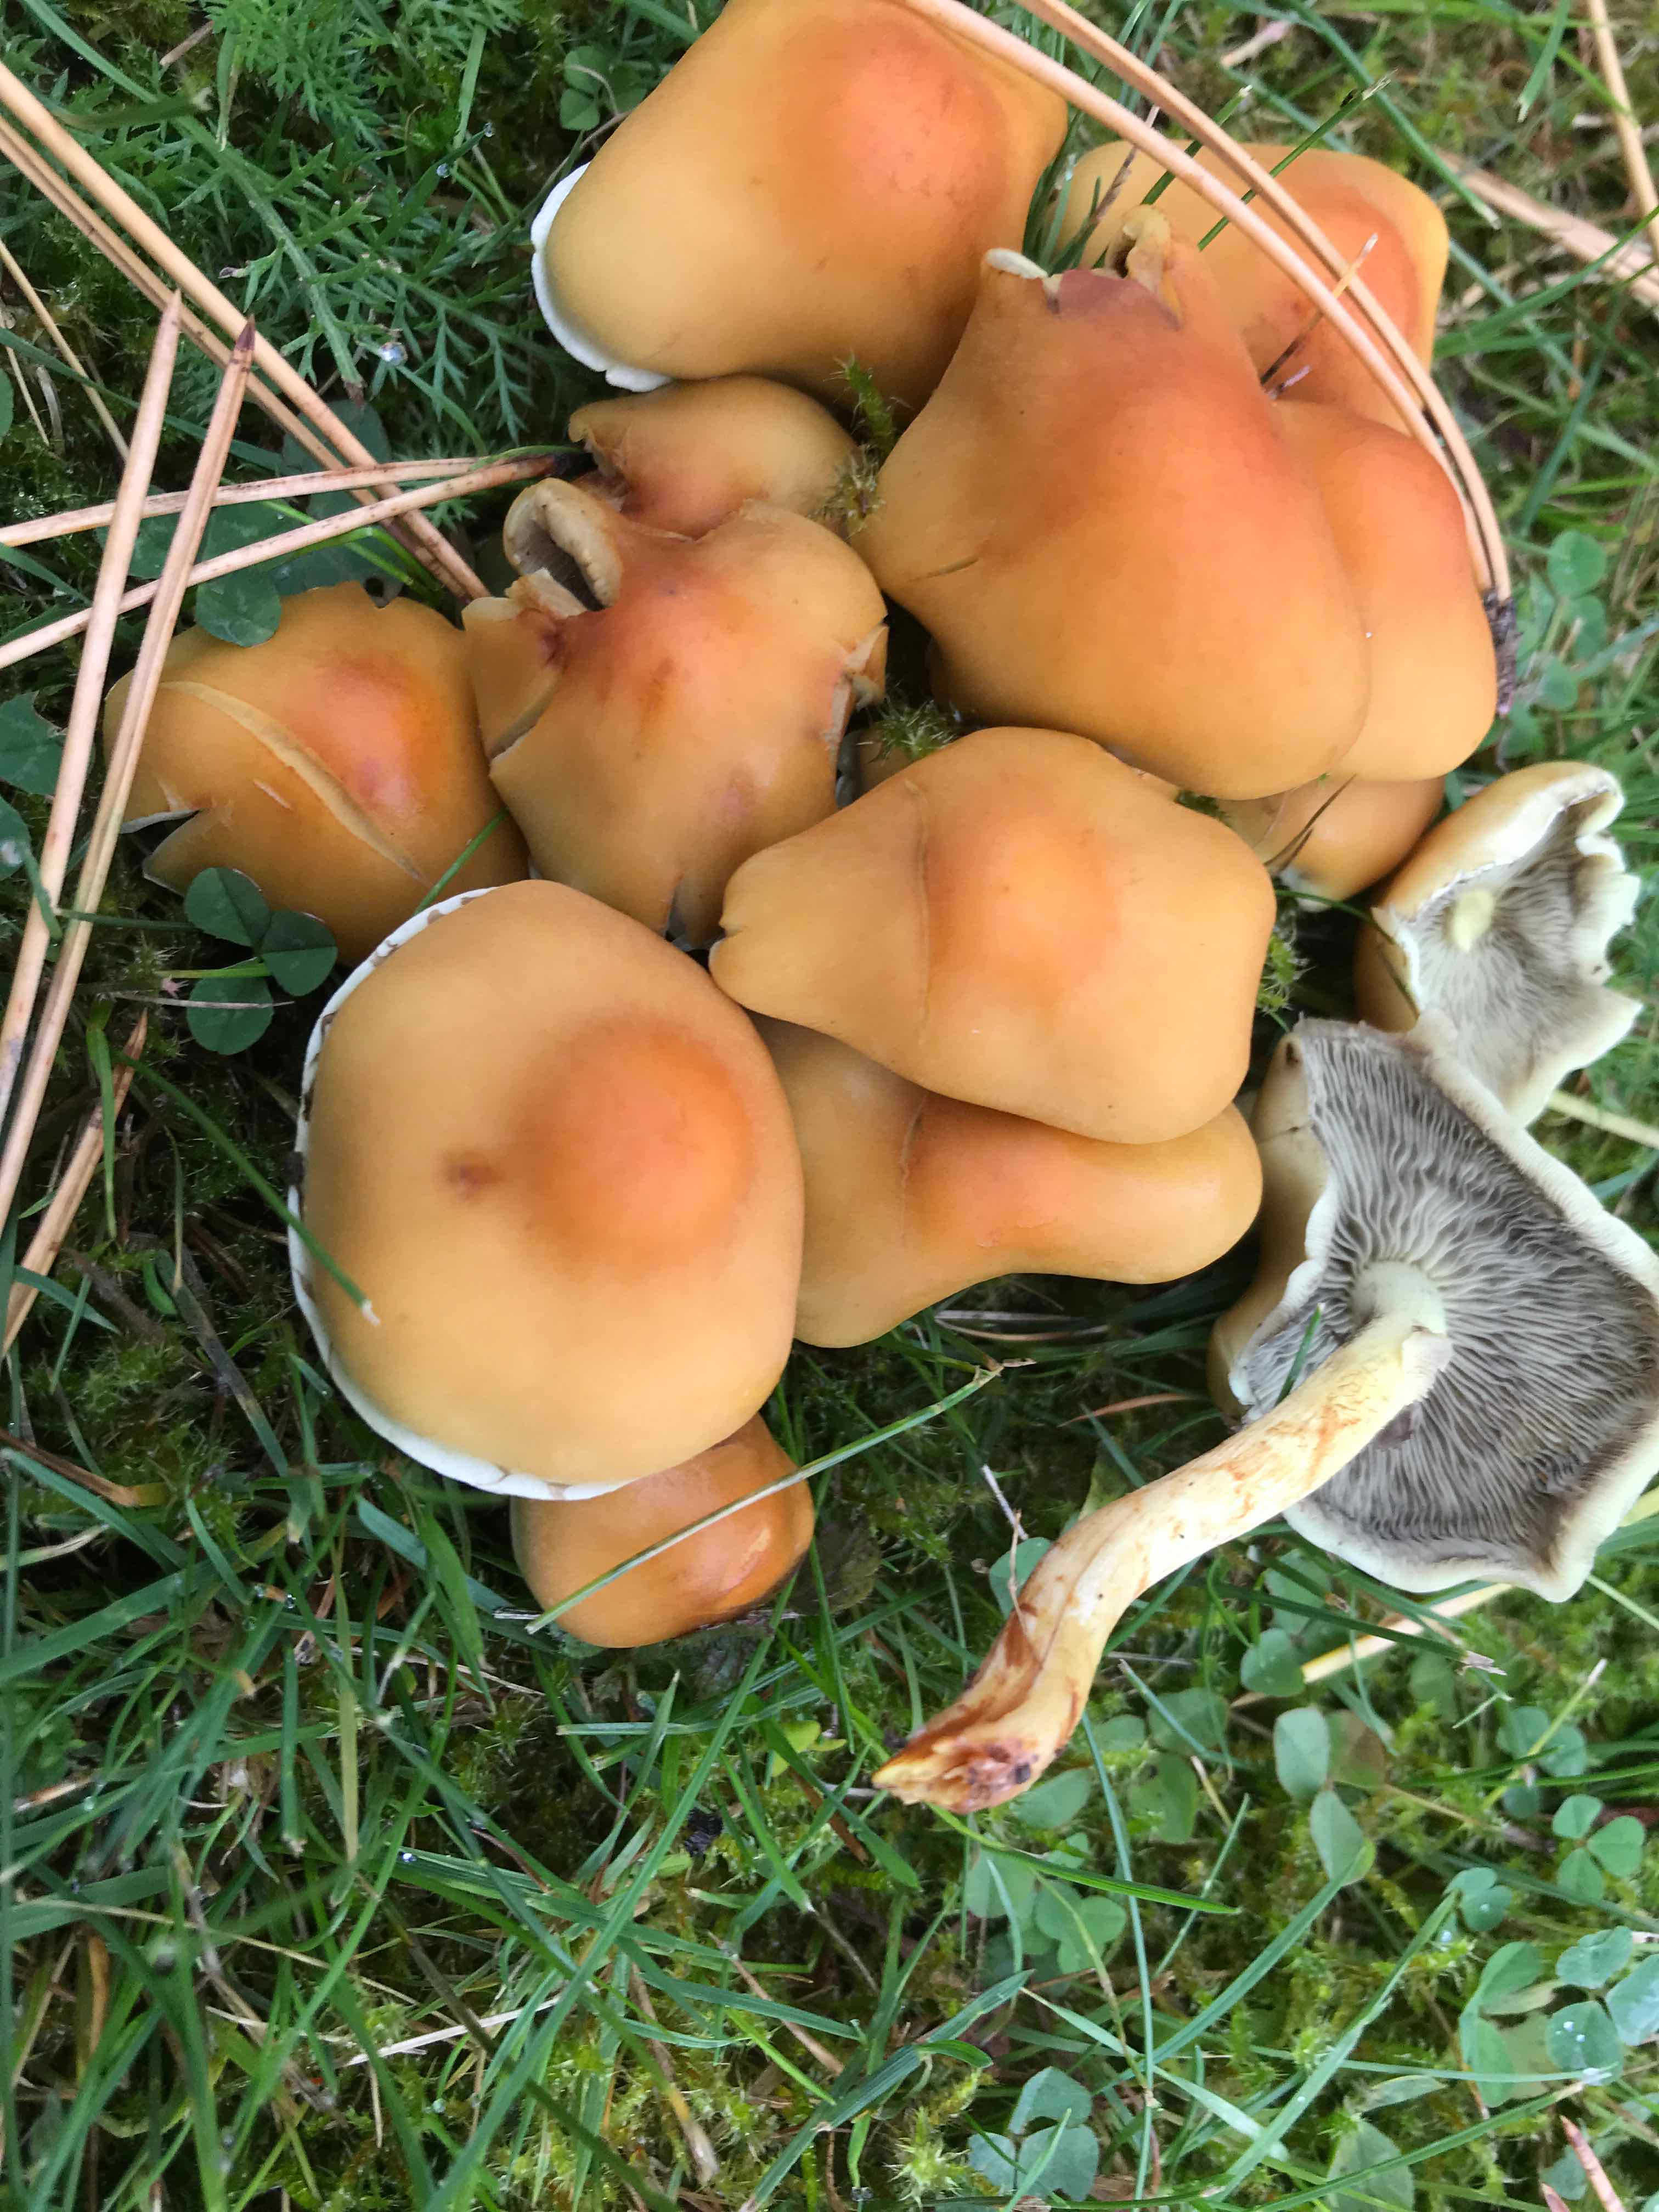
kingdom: Fungi
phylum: Basidiomycota
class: Agaricomycetes
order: Agaricales
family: Strophariaceae
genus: Hypholoma
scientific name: Hypholoma fasciculare
